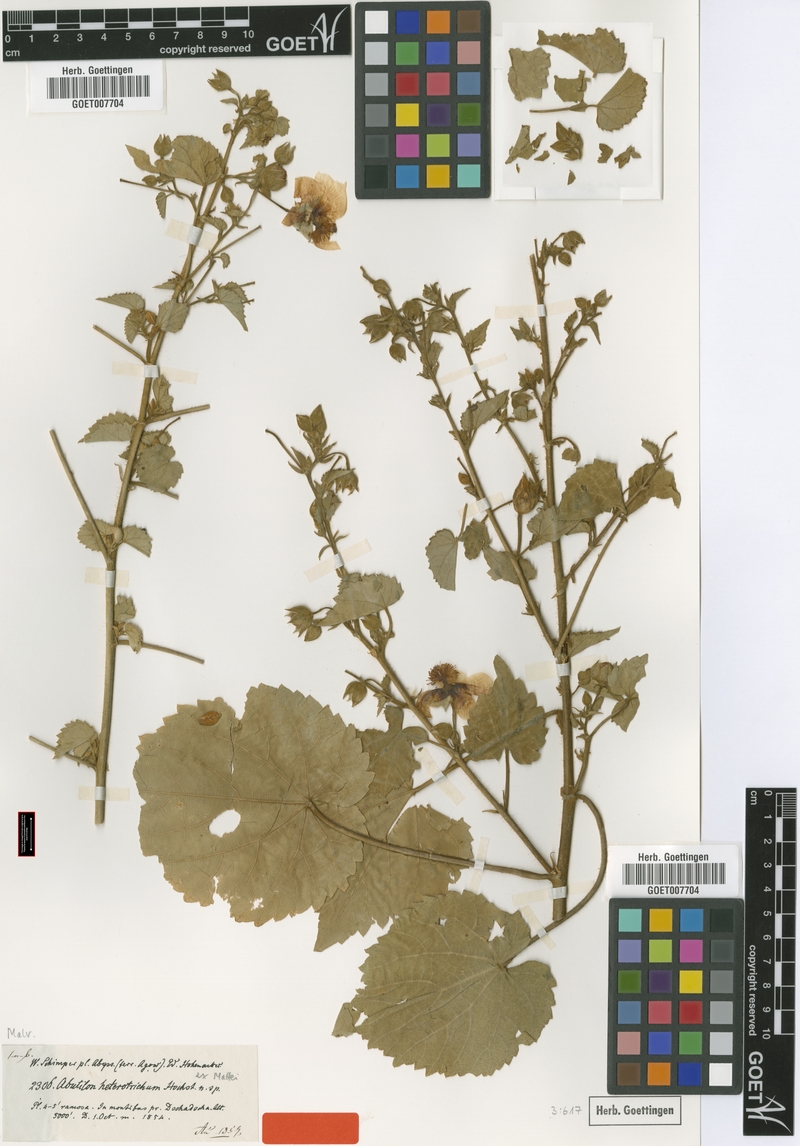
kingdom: Plantae
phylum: Tracheophyta
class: Magnoliopsida
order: Malvales
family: Malvaceae
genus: Abutilon
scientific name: Abutilon hirtum
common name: Florida keys indian mallow
